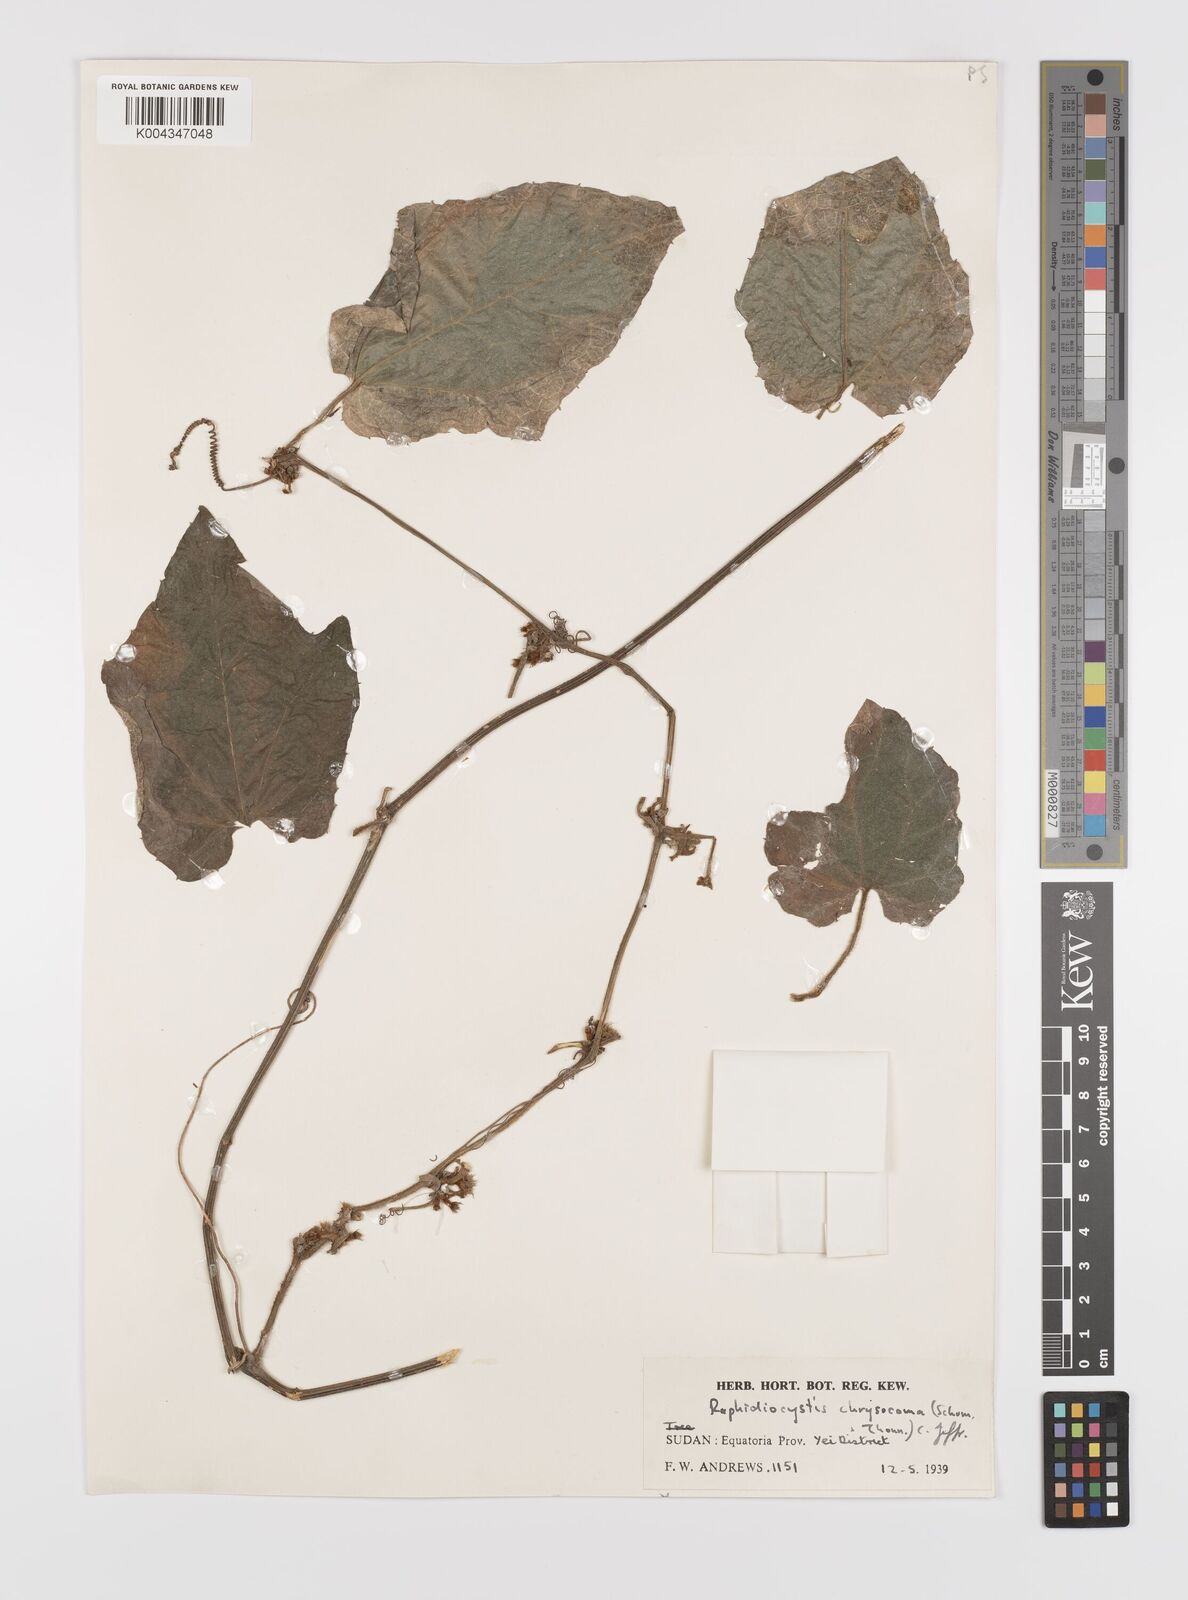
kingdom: Plantae
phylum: Tracheophyta
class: Magnoliopsida
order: Cucurbitales
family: Cucurbitaceae
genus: Raphidiocystis
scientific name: Raphidiocystis phyllocalyx
